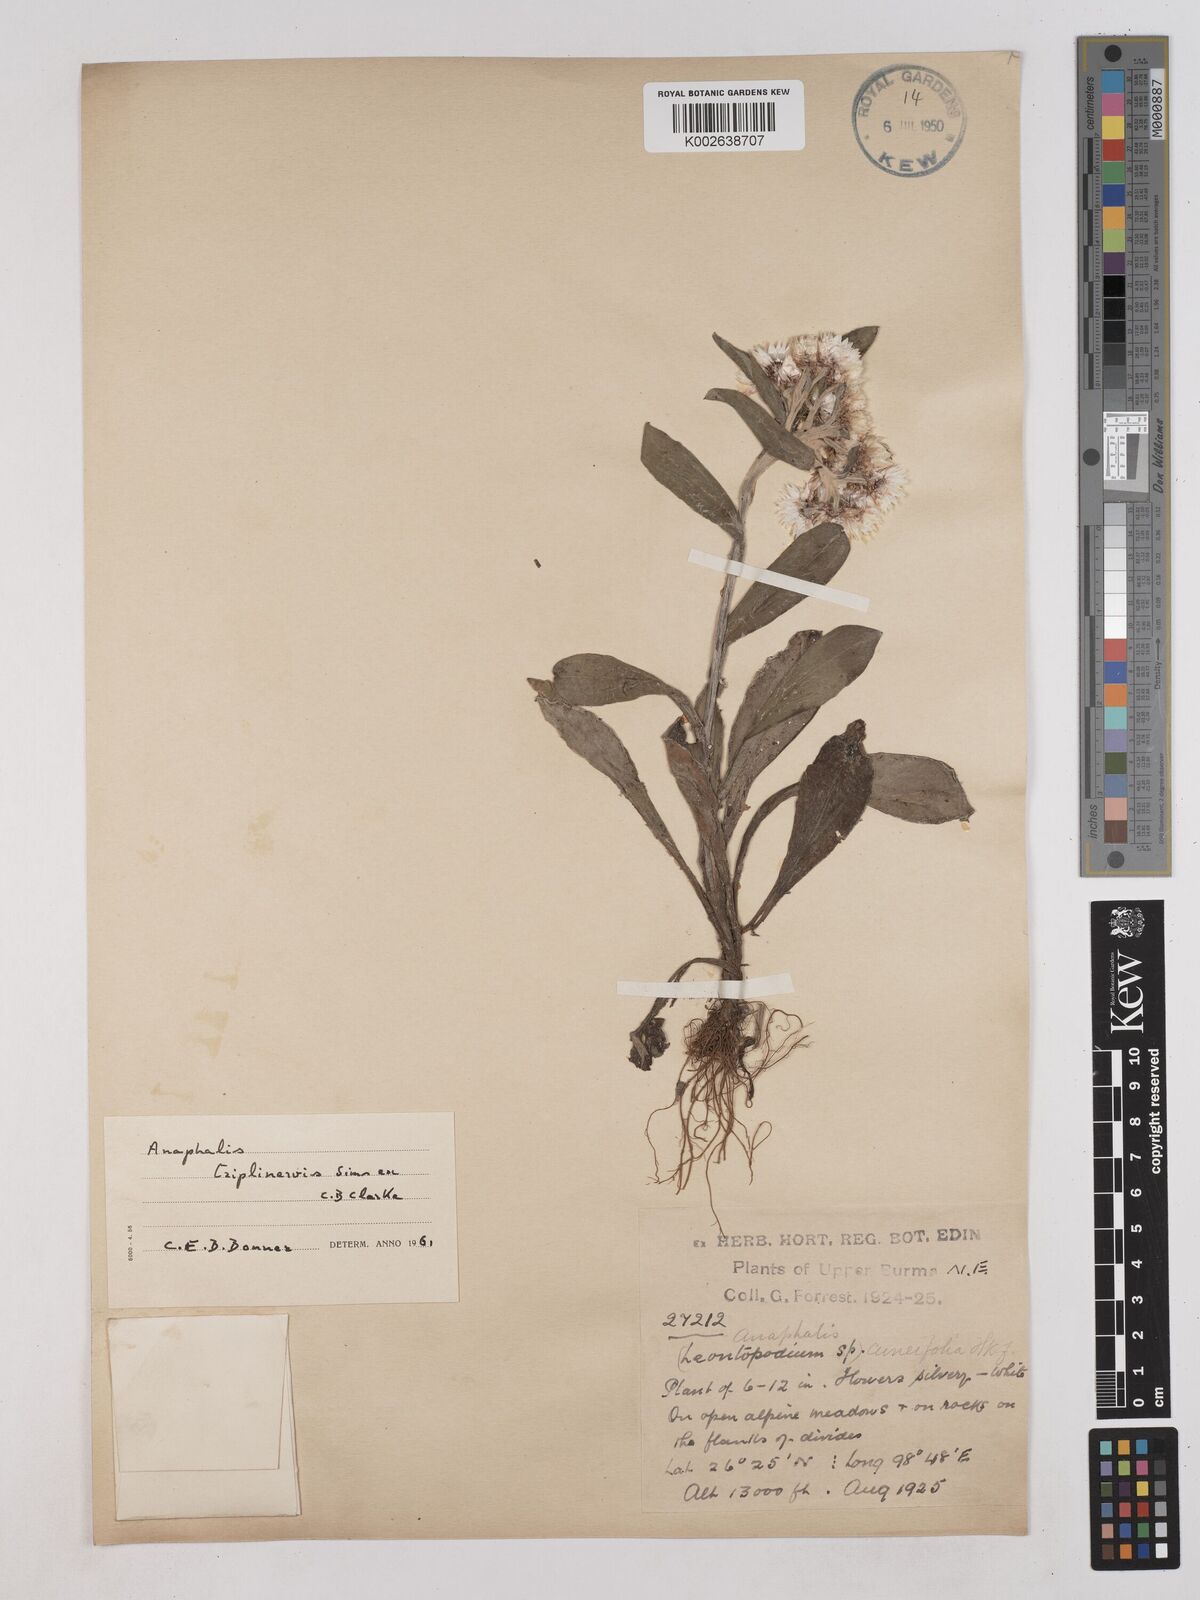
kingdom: Plantae
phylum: Tracheophyta
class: Magnoliopsida
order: Asterales
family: Asteraceae
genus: Anaphalis
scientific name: Anaphalis triplinervis
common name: Pearly everlasting
